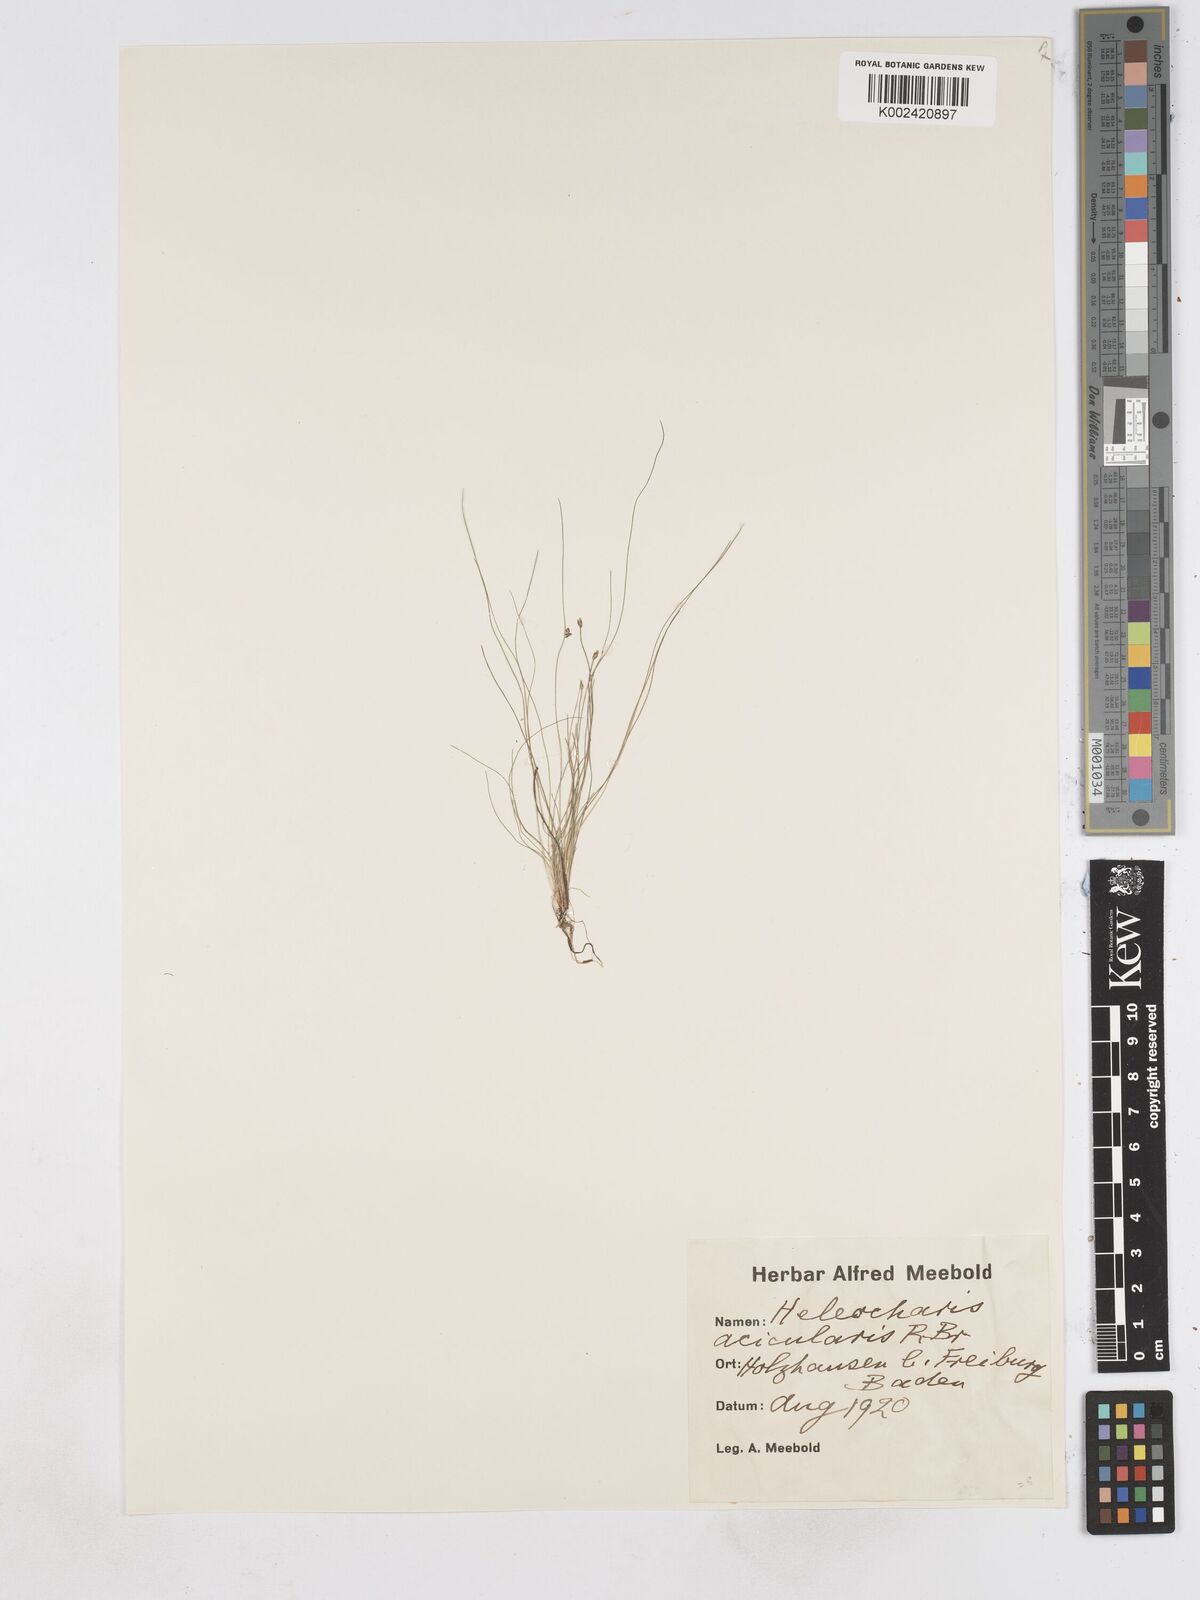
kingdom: Plantae
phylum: Tracheophyta
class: Liliopsida
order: Poales
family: Cyperaceae
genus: Eleocharis
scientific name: Eleocharis acicularis
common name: Needle spike-rush
